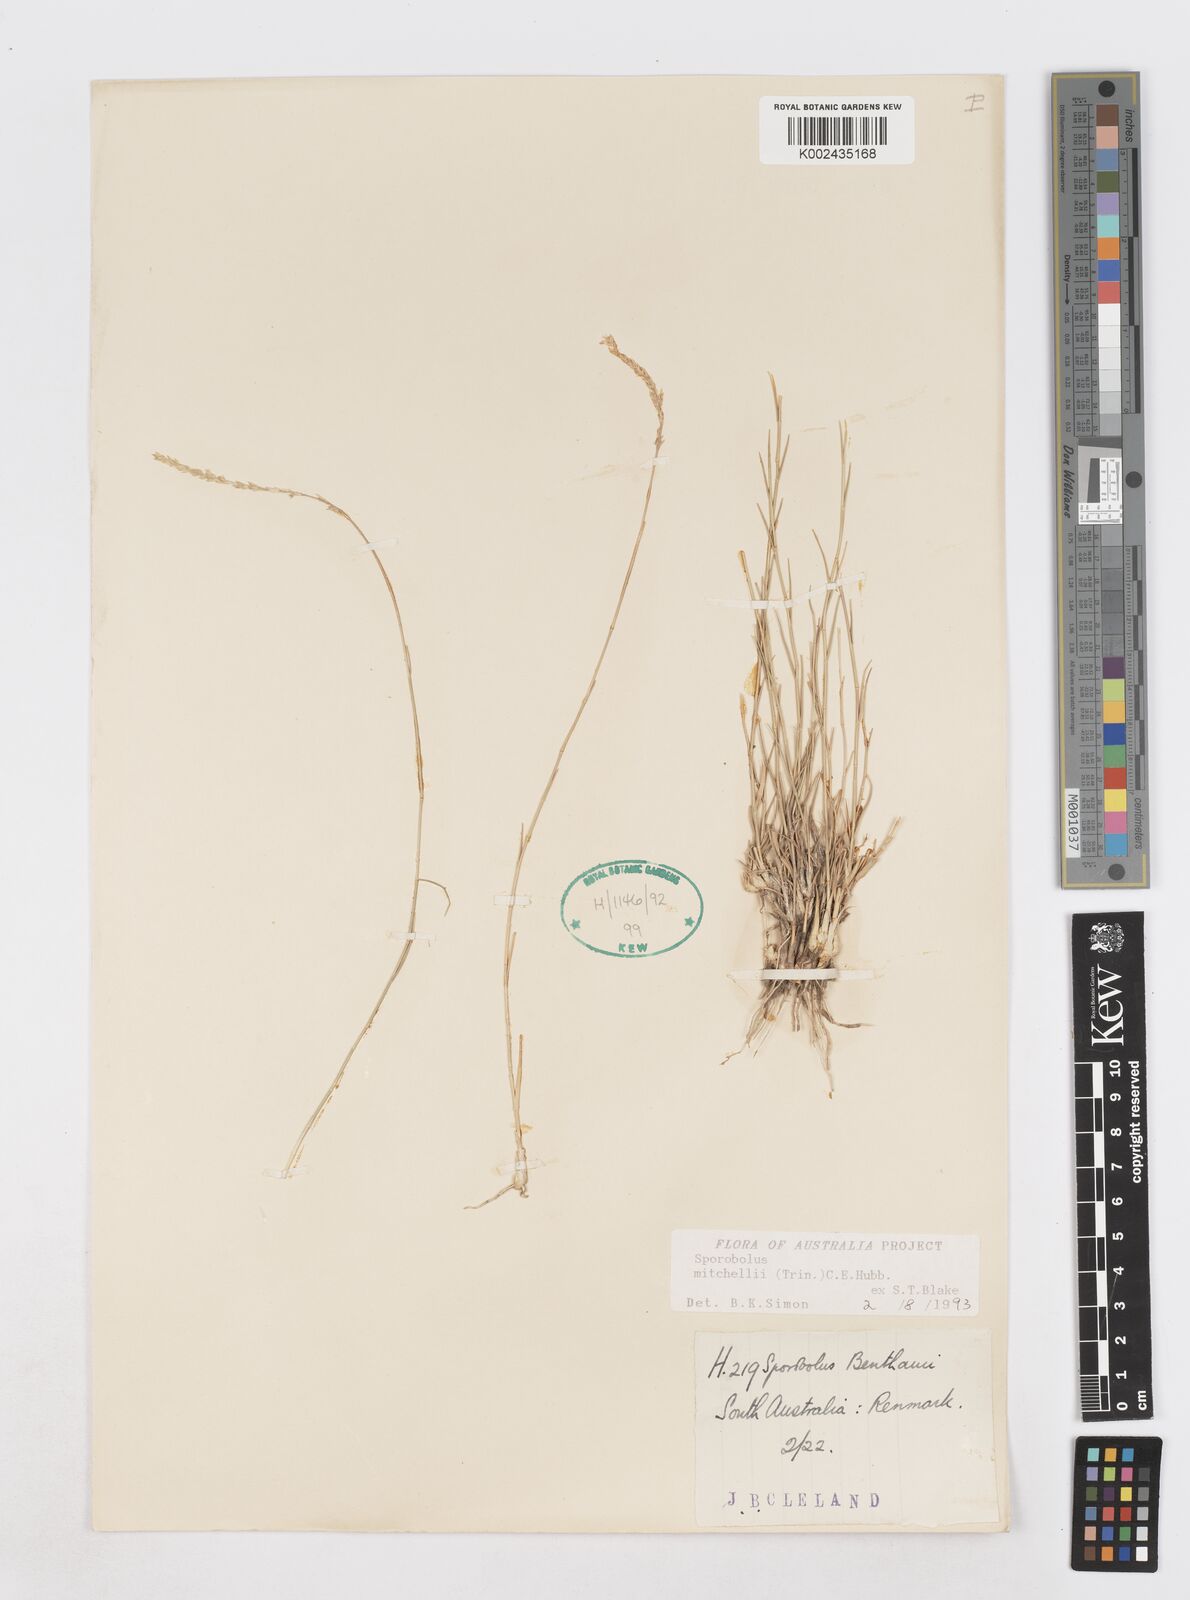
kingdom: Plantae
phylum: Tracheophyta
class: Liliopsida
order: Poales
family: Poaceae
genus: Sporobolus
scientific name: Sporobolus mitchellii
